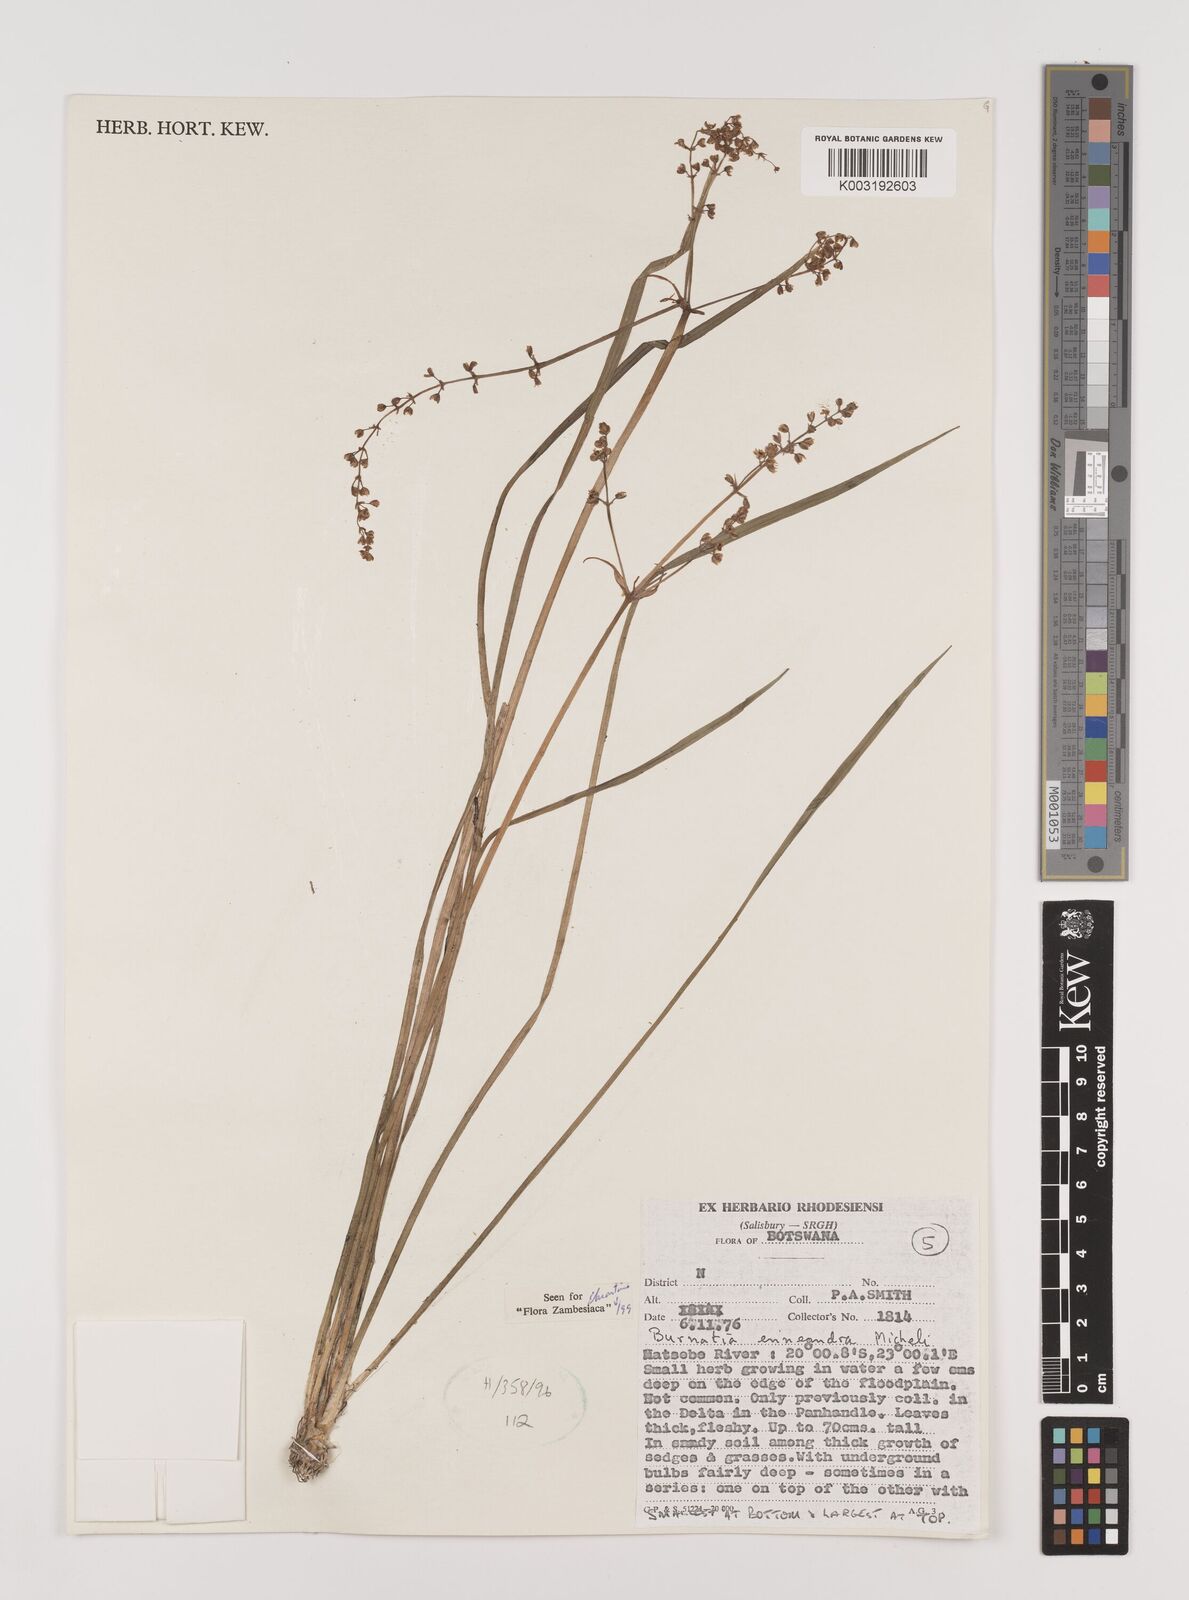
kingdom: Plantae
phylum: Tracheophyta
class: Liliopsida
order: Alismatales
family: Alismataceae
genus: Burnatia
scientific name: Burnatia enneandra
